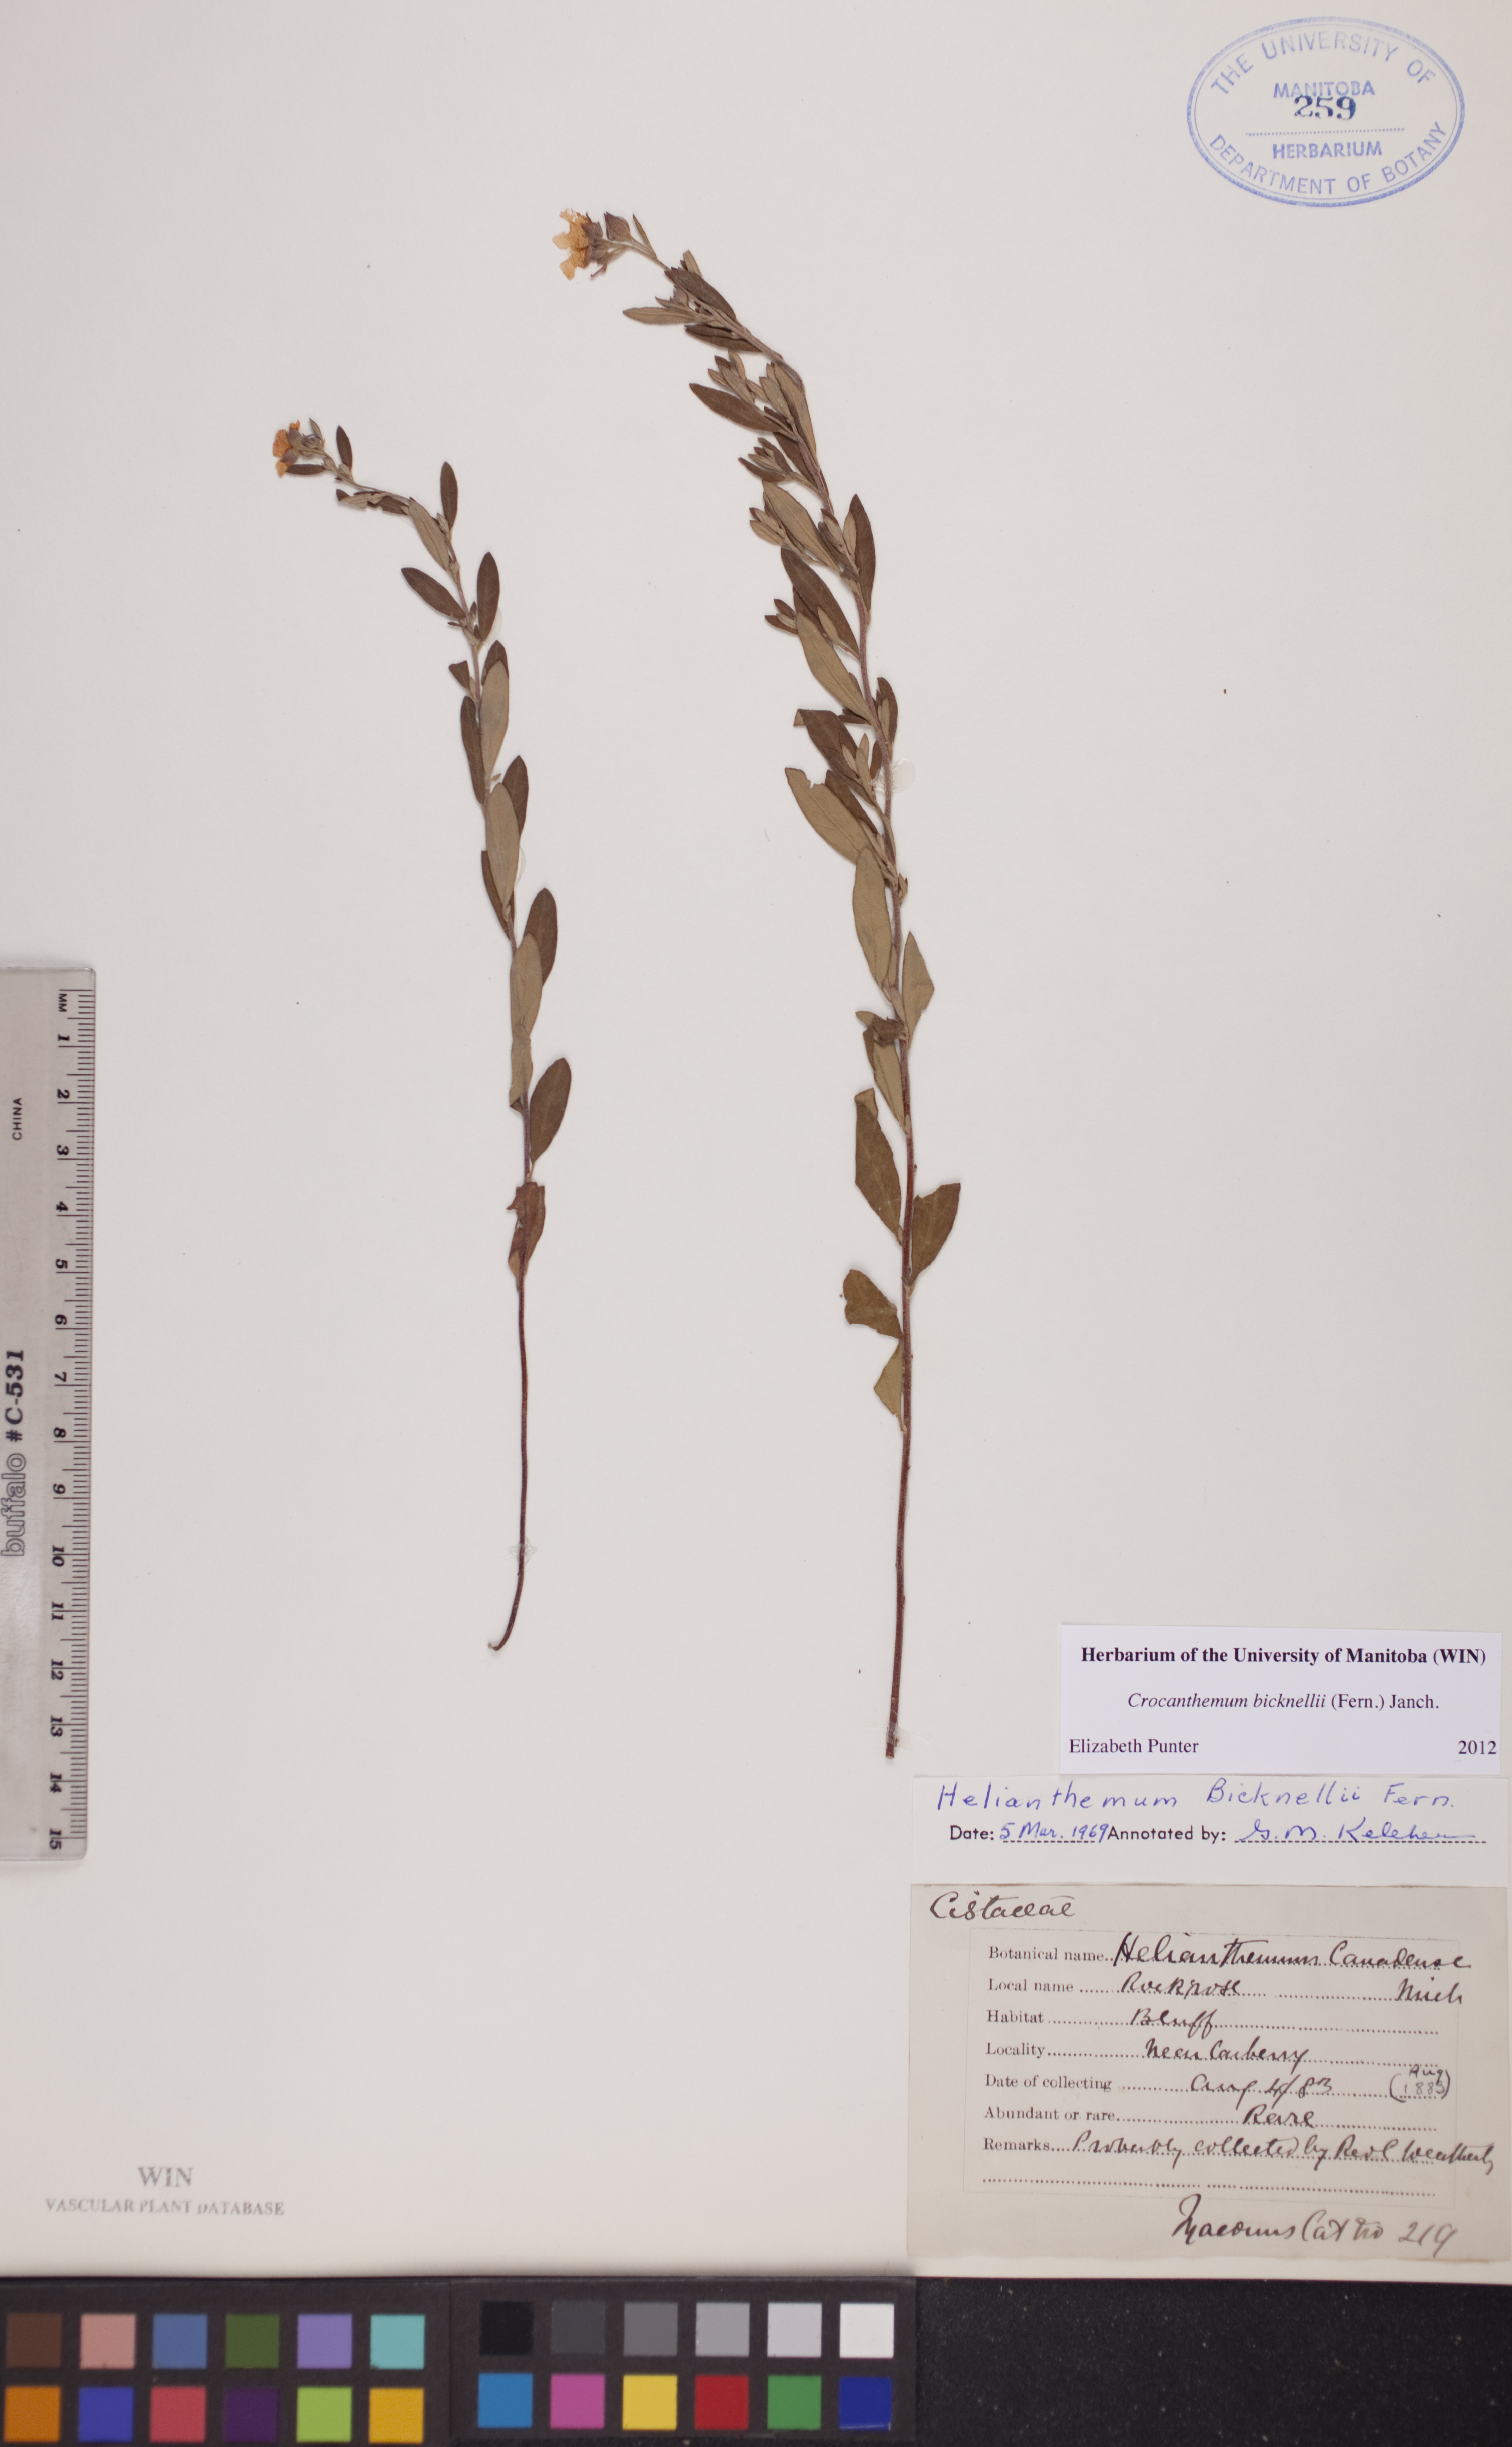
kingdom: Plantae
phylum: Tracheophyta
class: Magnoliopsida
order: Malvales
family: Cistaceae
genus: Crocanthemum
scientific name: Crocanthemum bicknellii
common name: Hoary frostweed
